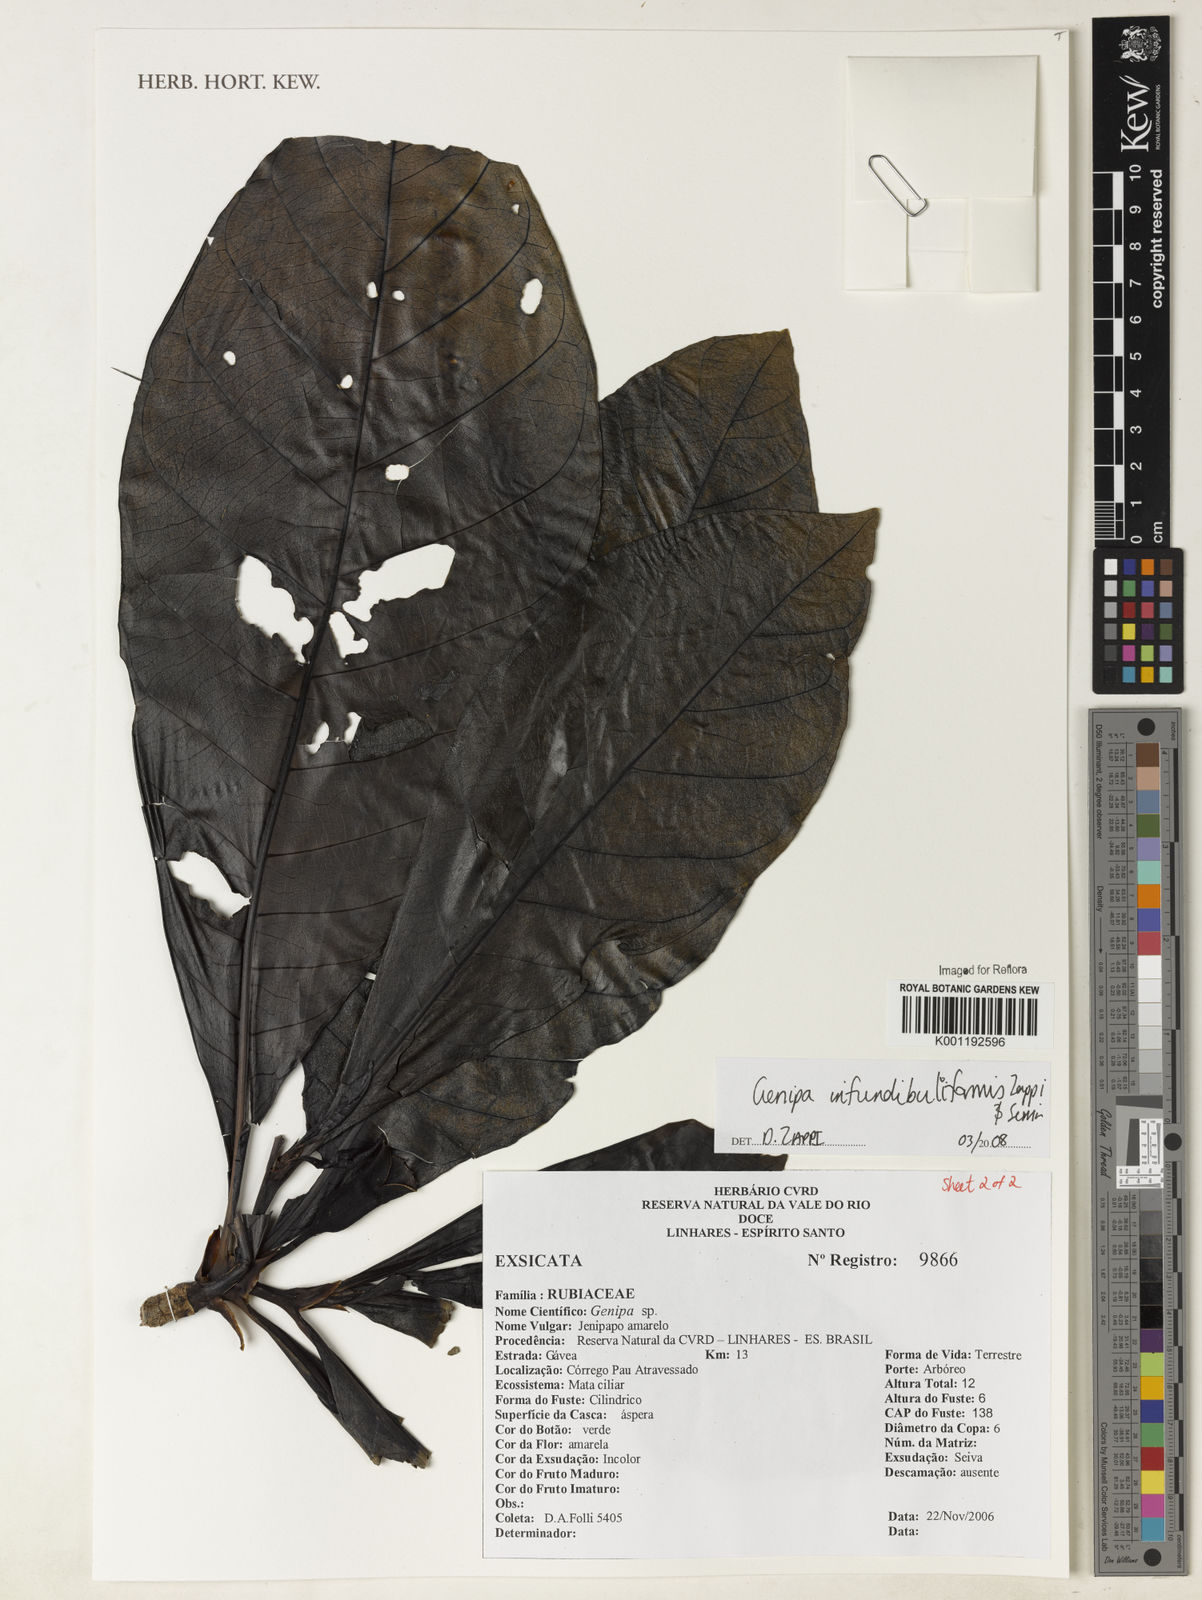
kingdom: Plantae
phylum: Tracheophyta
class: Magnoliopsida
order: Gentianales
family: Rubiaceae
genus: Genipa
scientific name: Genipa infundibuliformis
